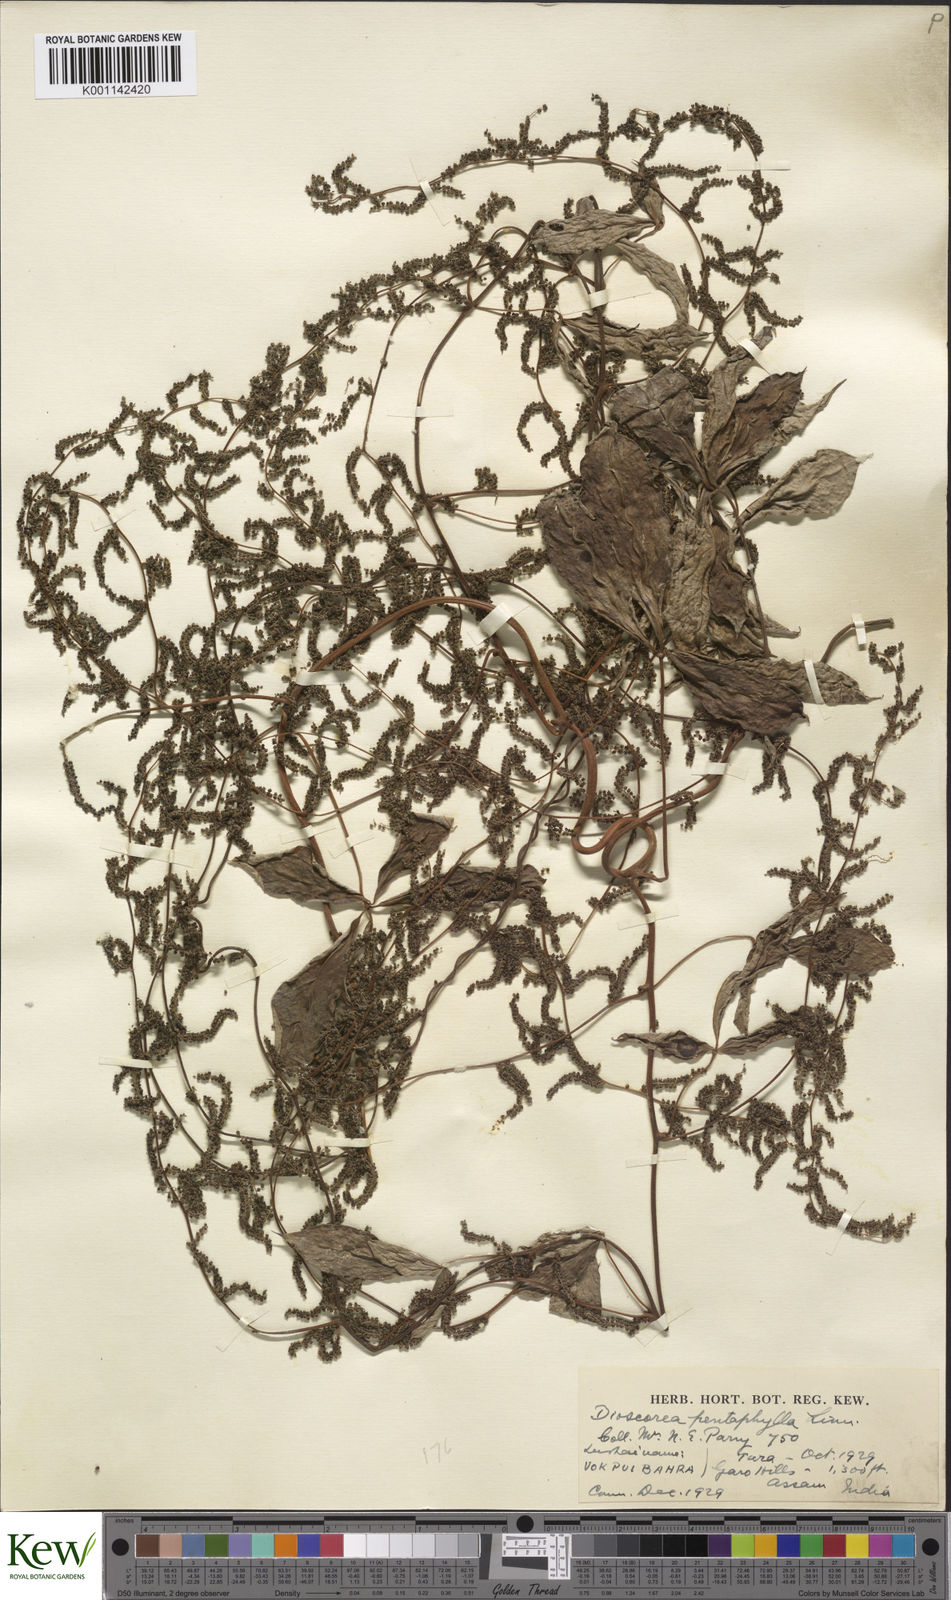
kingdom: Plantae
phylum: Tracheophyta
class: Liliopsida
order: Dioscoreales
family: Dioscoreaceae
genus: Dioscorea
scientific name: Dioscorea pentaphylla
